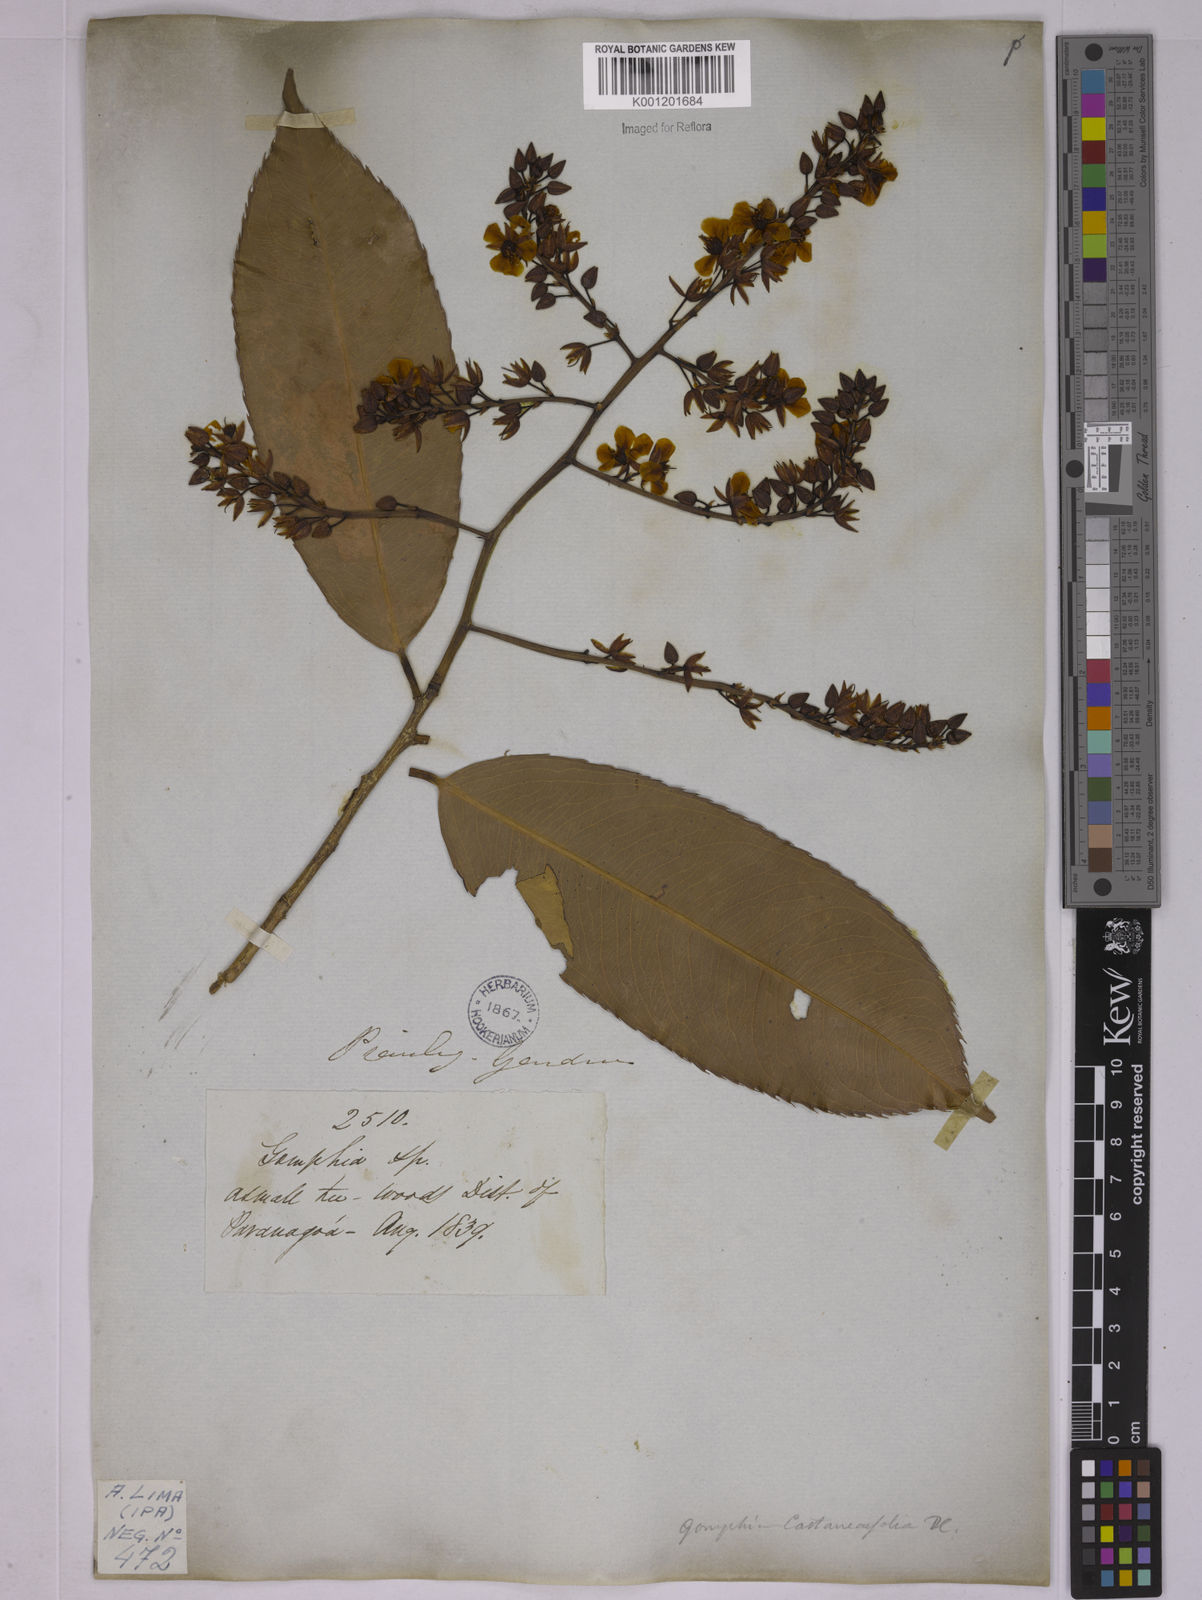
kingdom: Plantae
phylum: Tracheophyta
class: Magnoliopsida
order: Malpighiales
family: Ochnaceae
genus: Ouratea
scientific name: Ouratea castaneifolia
